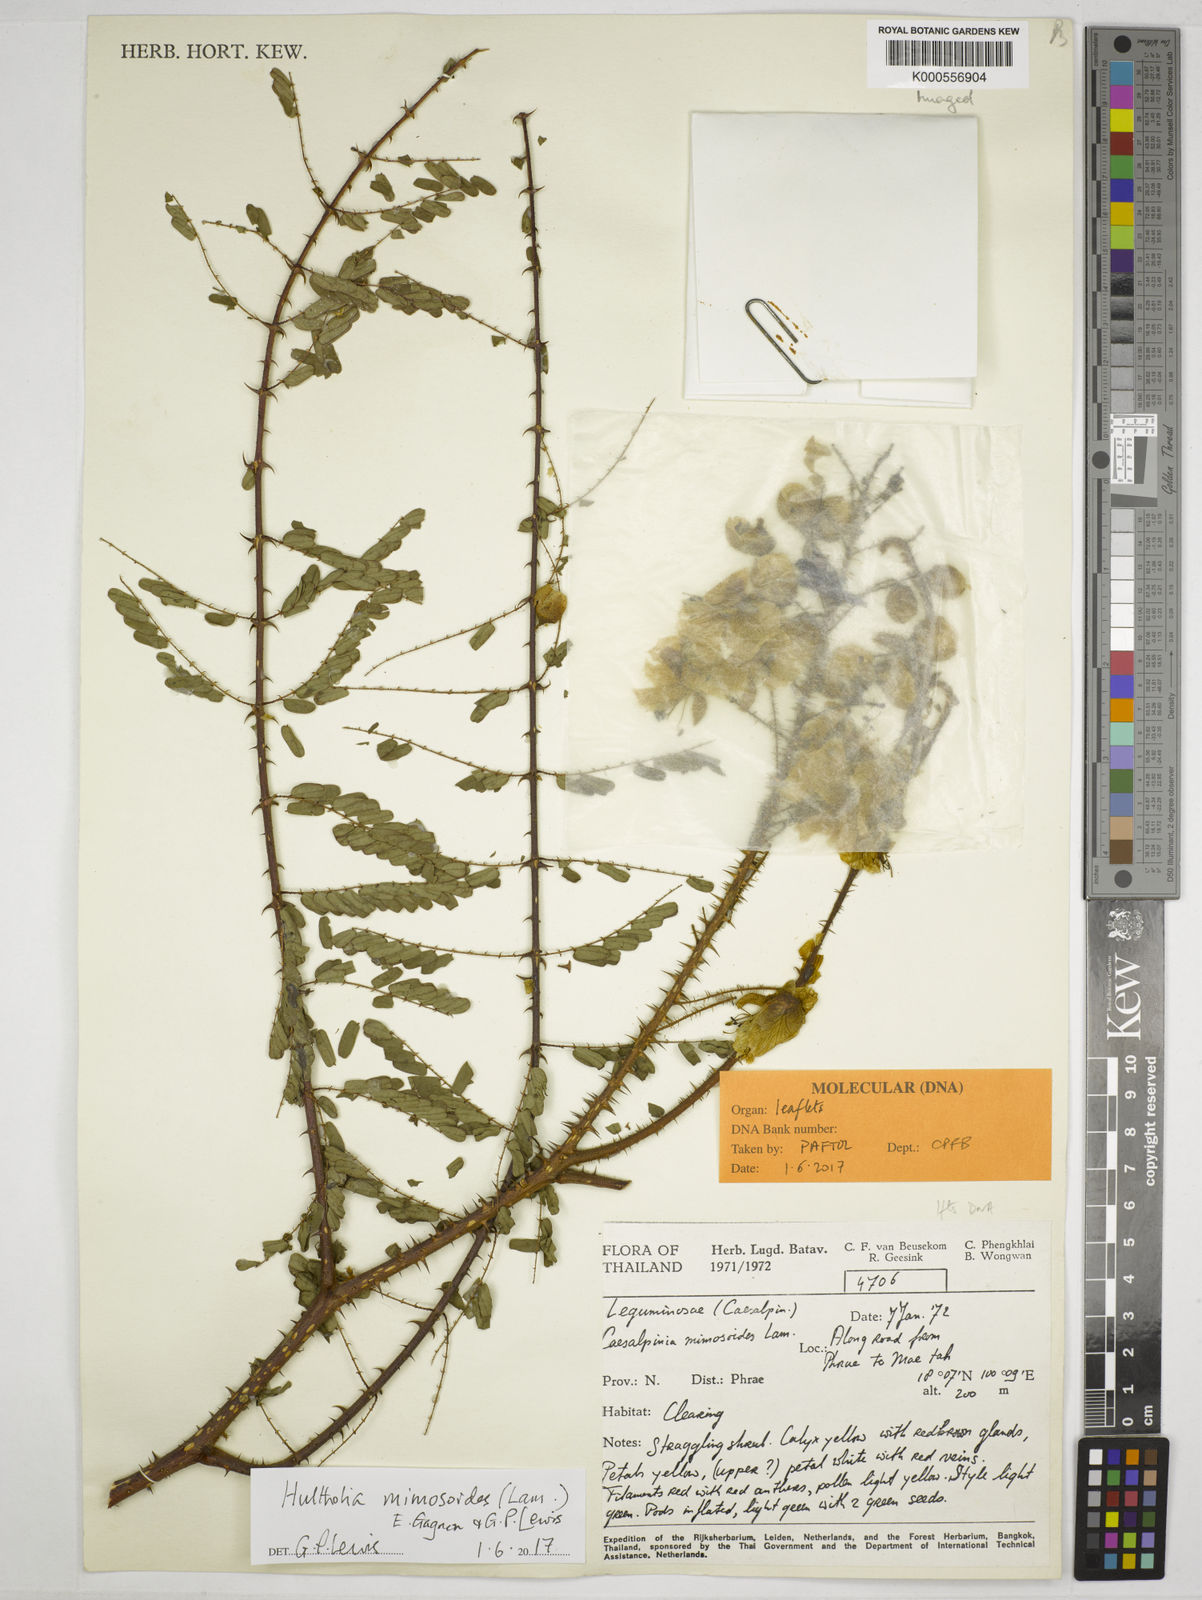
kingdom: Plantae
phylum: Tracheophyta
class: Magnoliopsida
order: Fabales
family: Fabaceae
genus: Hultholia
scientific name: Hultholia mimosoides
